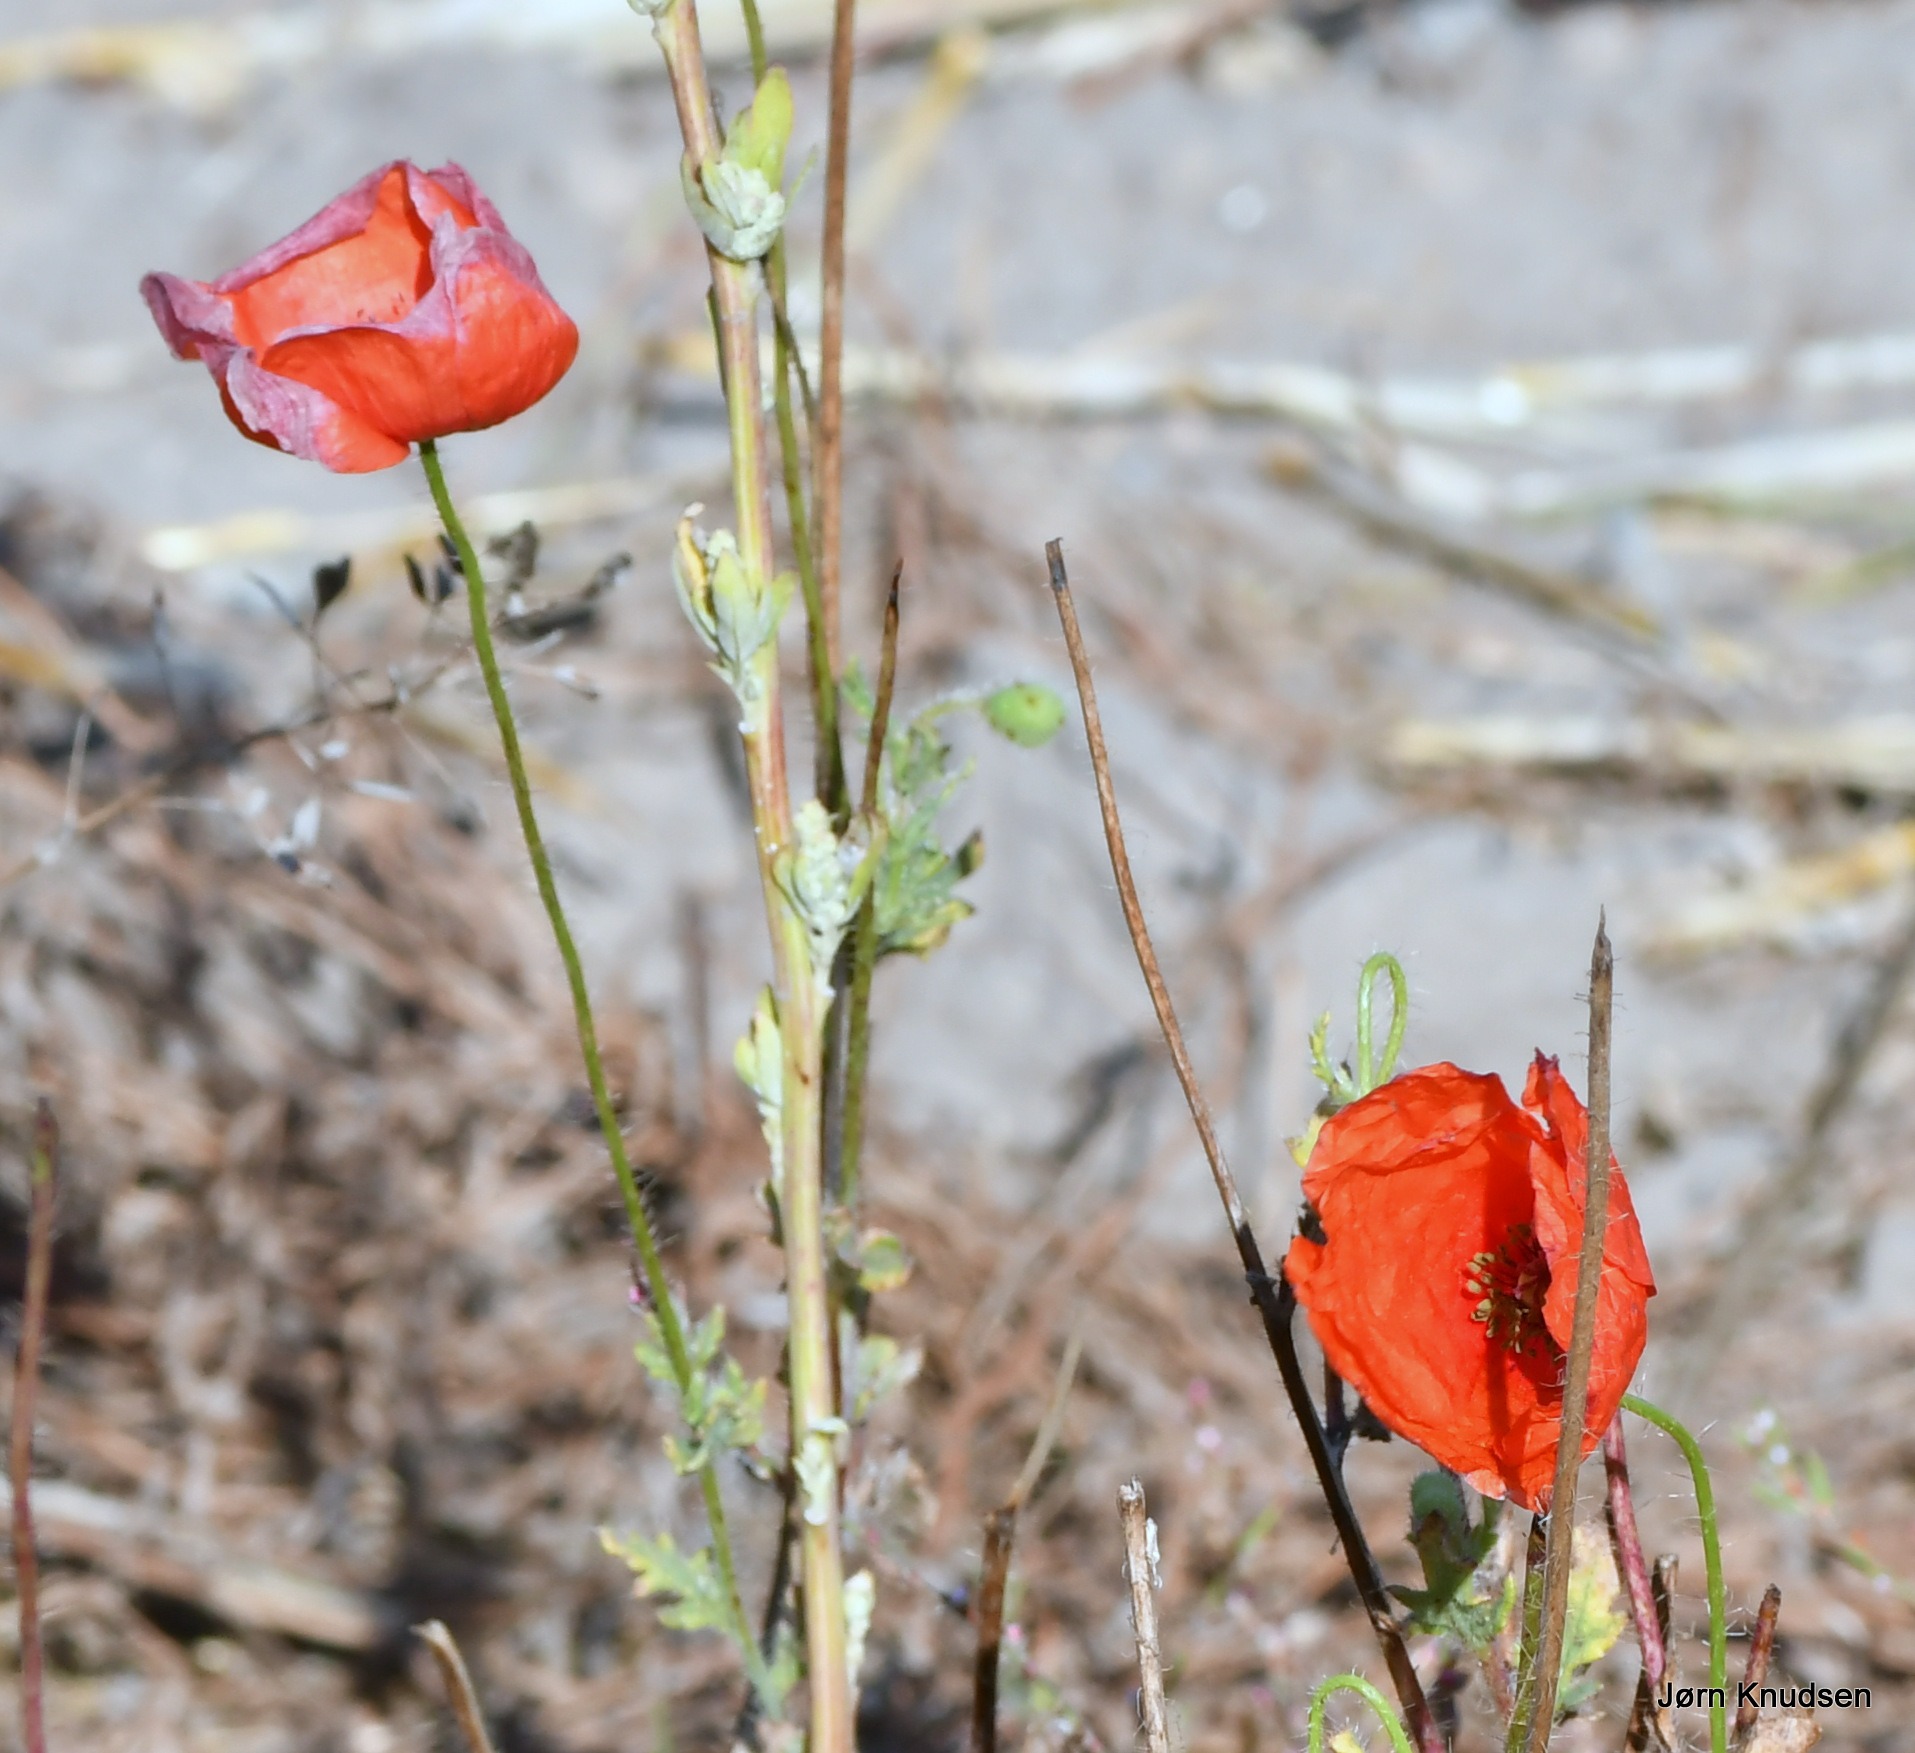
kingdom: Plantae
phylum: Tracheophyta
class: Magnoliopsida
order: Ranunculales
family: Papaveraceae
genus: Papaver
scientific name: Papaver rhoeas
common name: Korn-valmue
